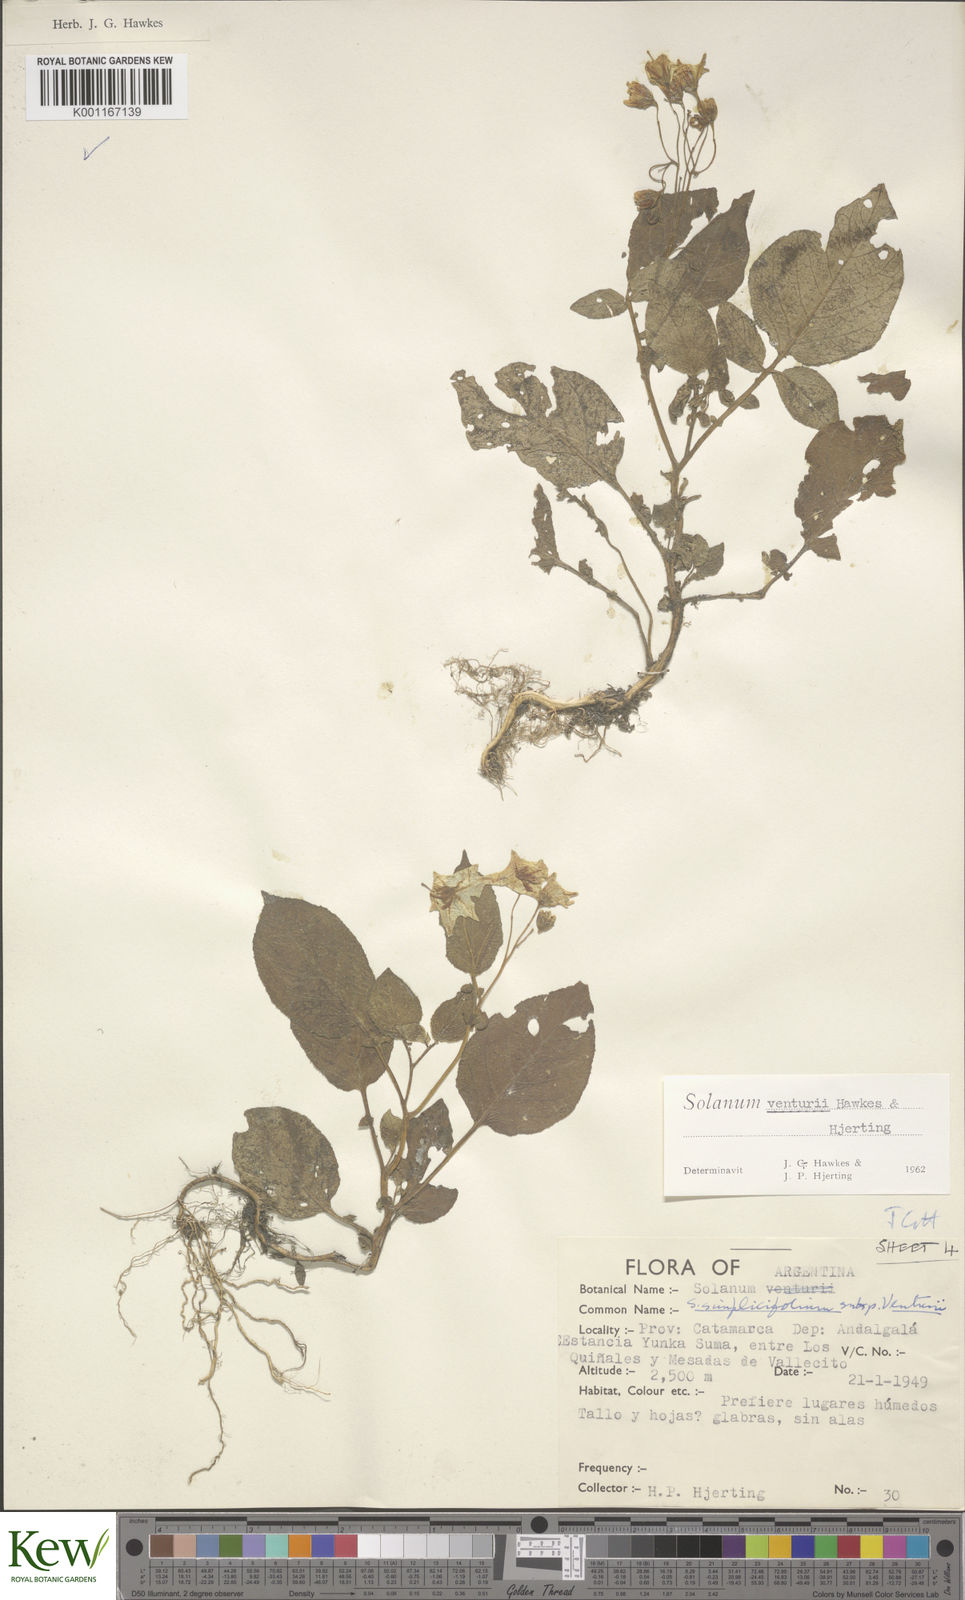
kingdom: Plantae
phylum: Tracheophyta
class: Magnoliopsida
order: Solanales
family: Solanaceae
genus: Solanum
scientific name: Solanum venturii
